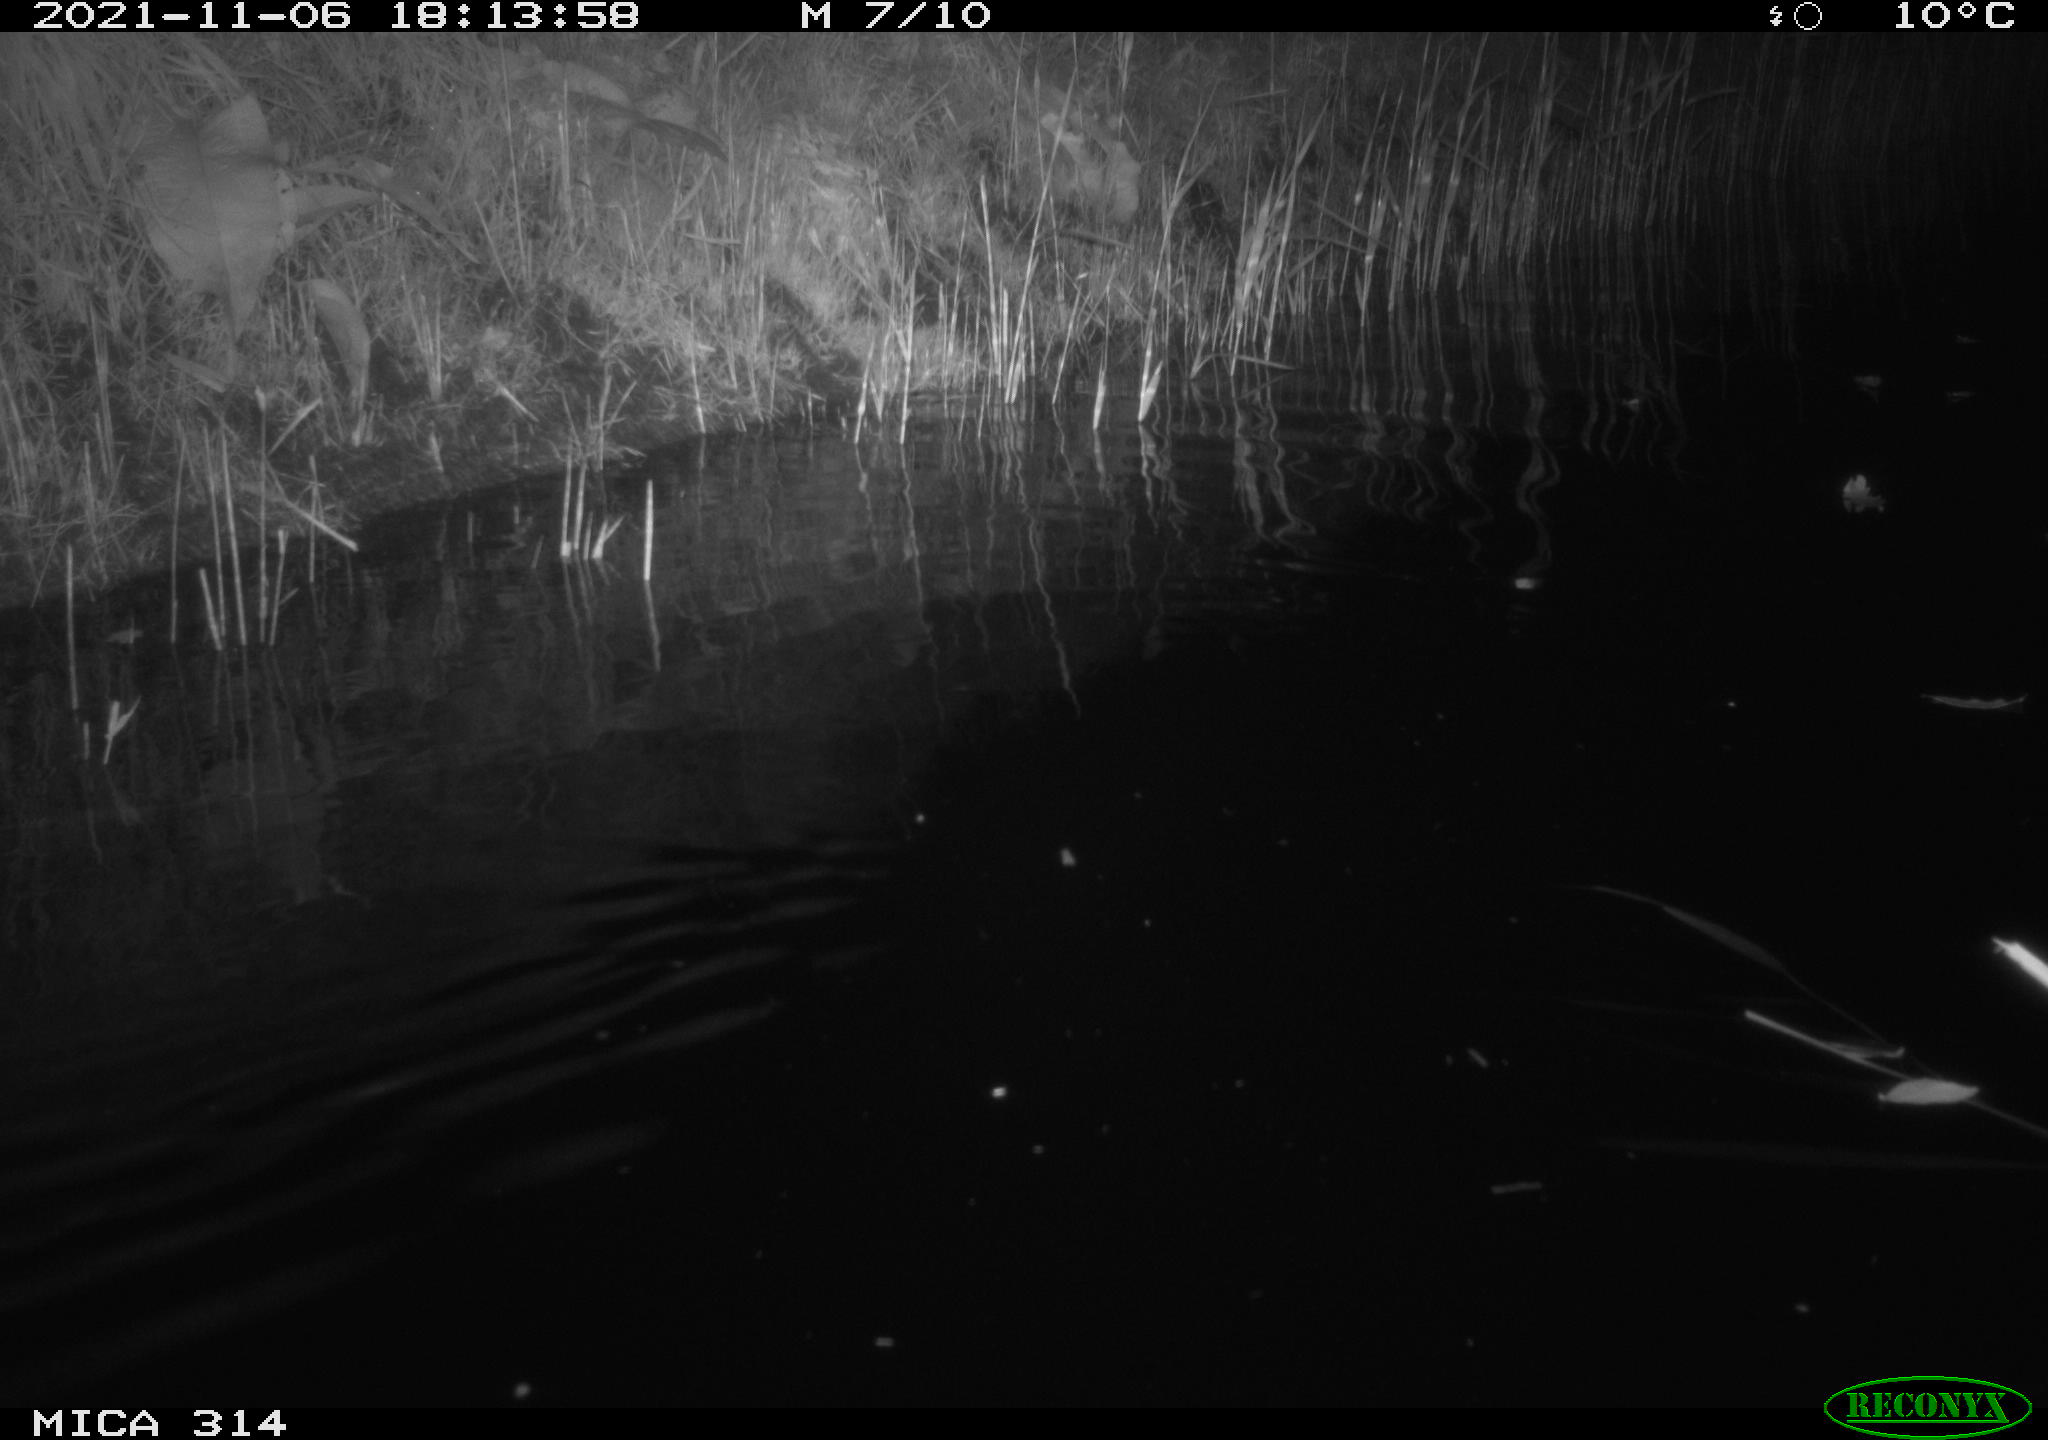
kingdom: Animalia
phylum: Chordata
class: Mammalia
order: Rodentia
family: Muridae
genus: Rattus
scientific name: Rattus norvegicus
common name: Brown rat
